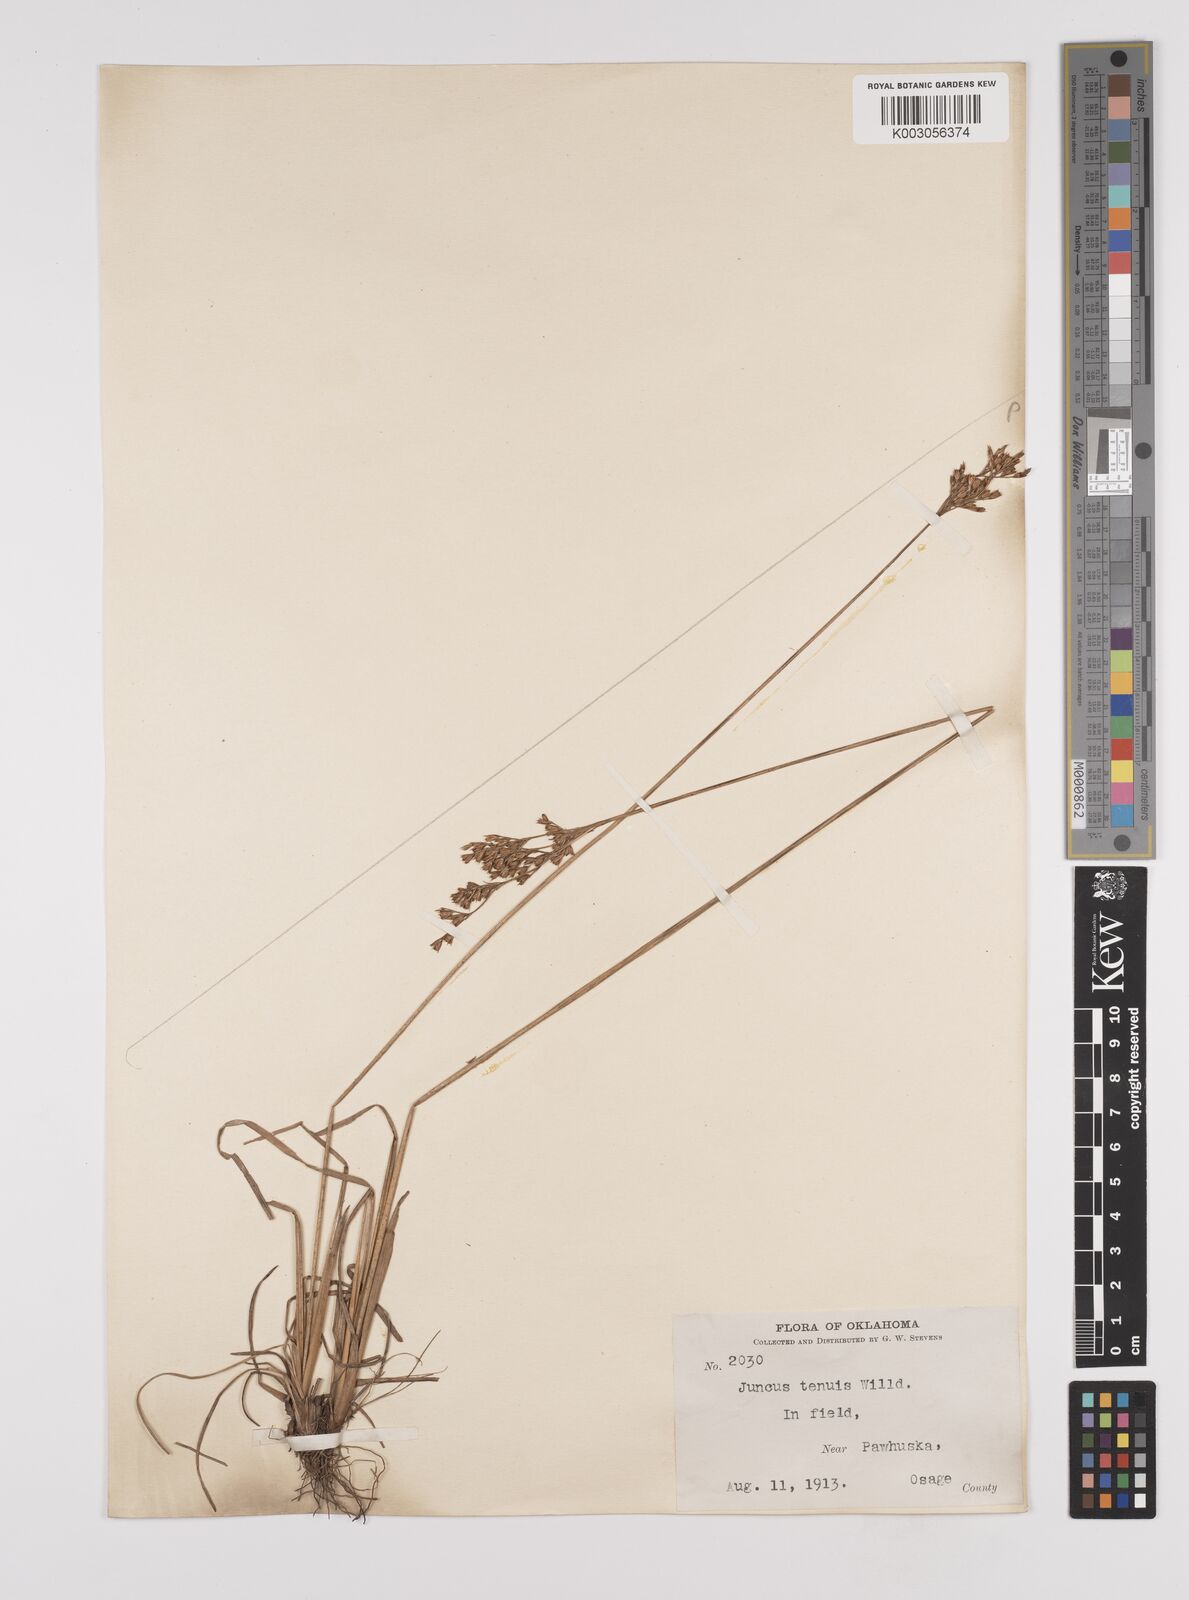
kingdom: Plantae
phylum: Tracheophyta
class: Liliopsida
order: Poales
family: Juncaceae
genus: Juncus
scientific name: Juncus tenuis
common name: Slender rush
